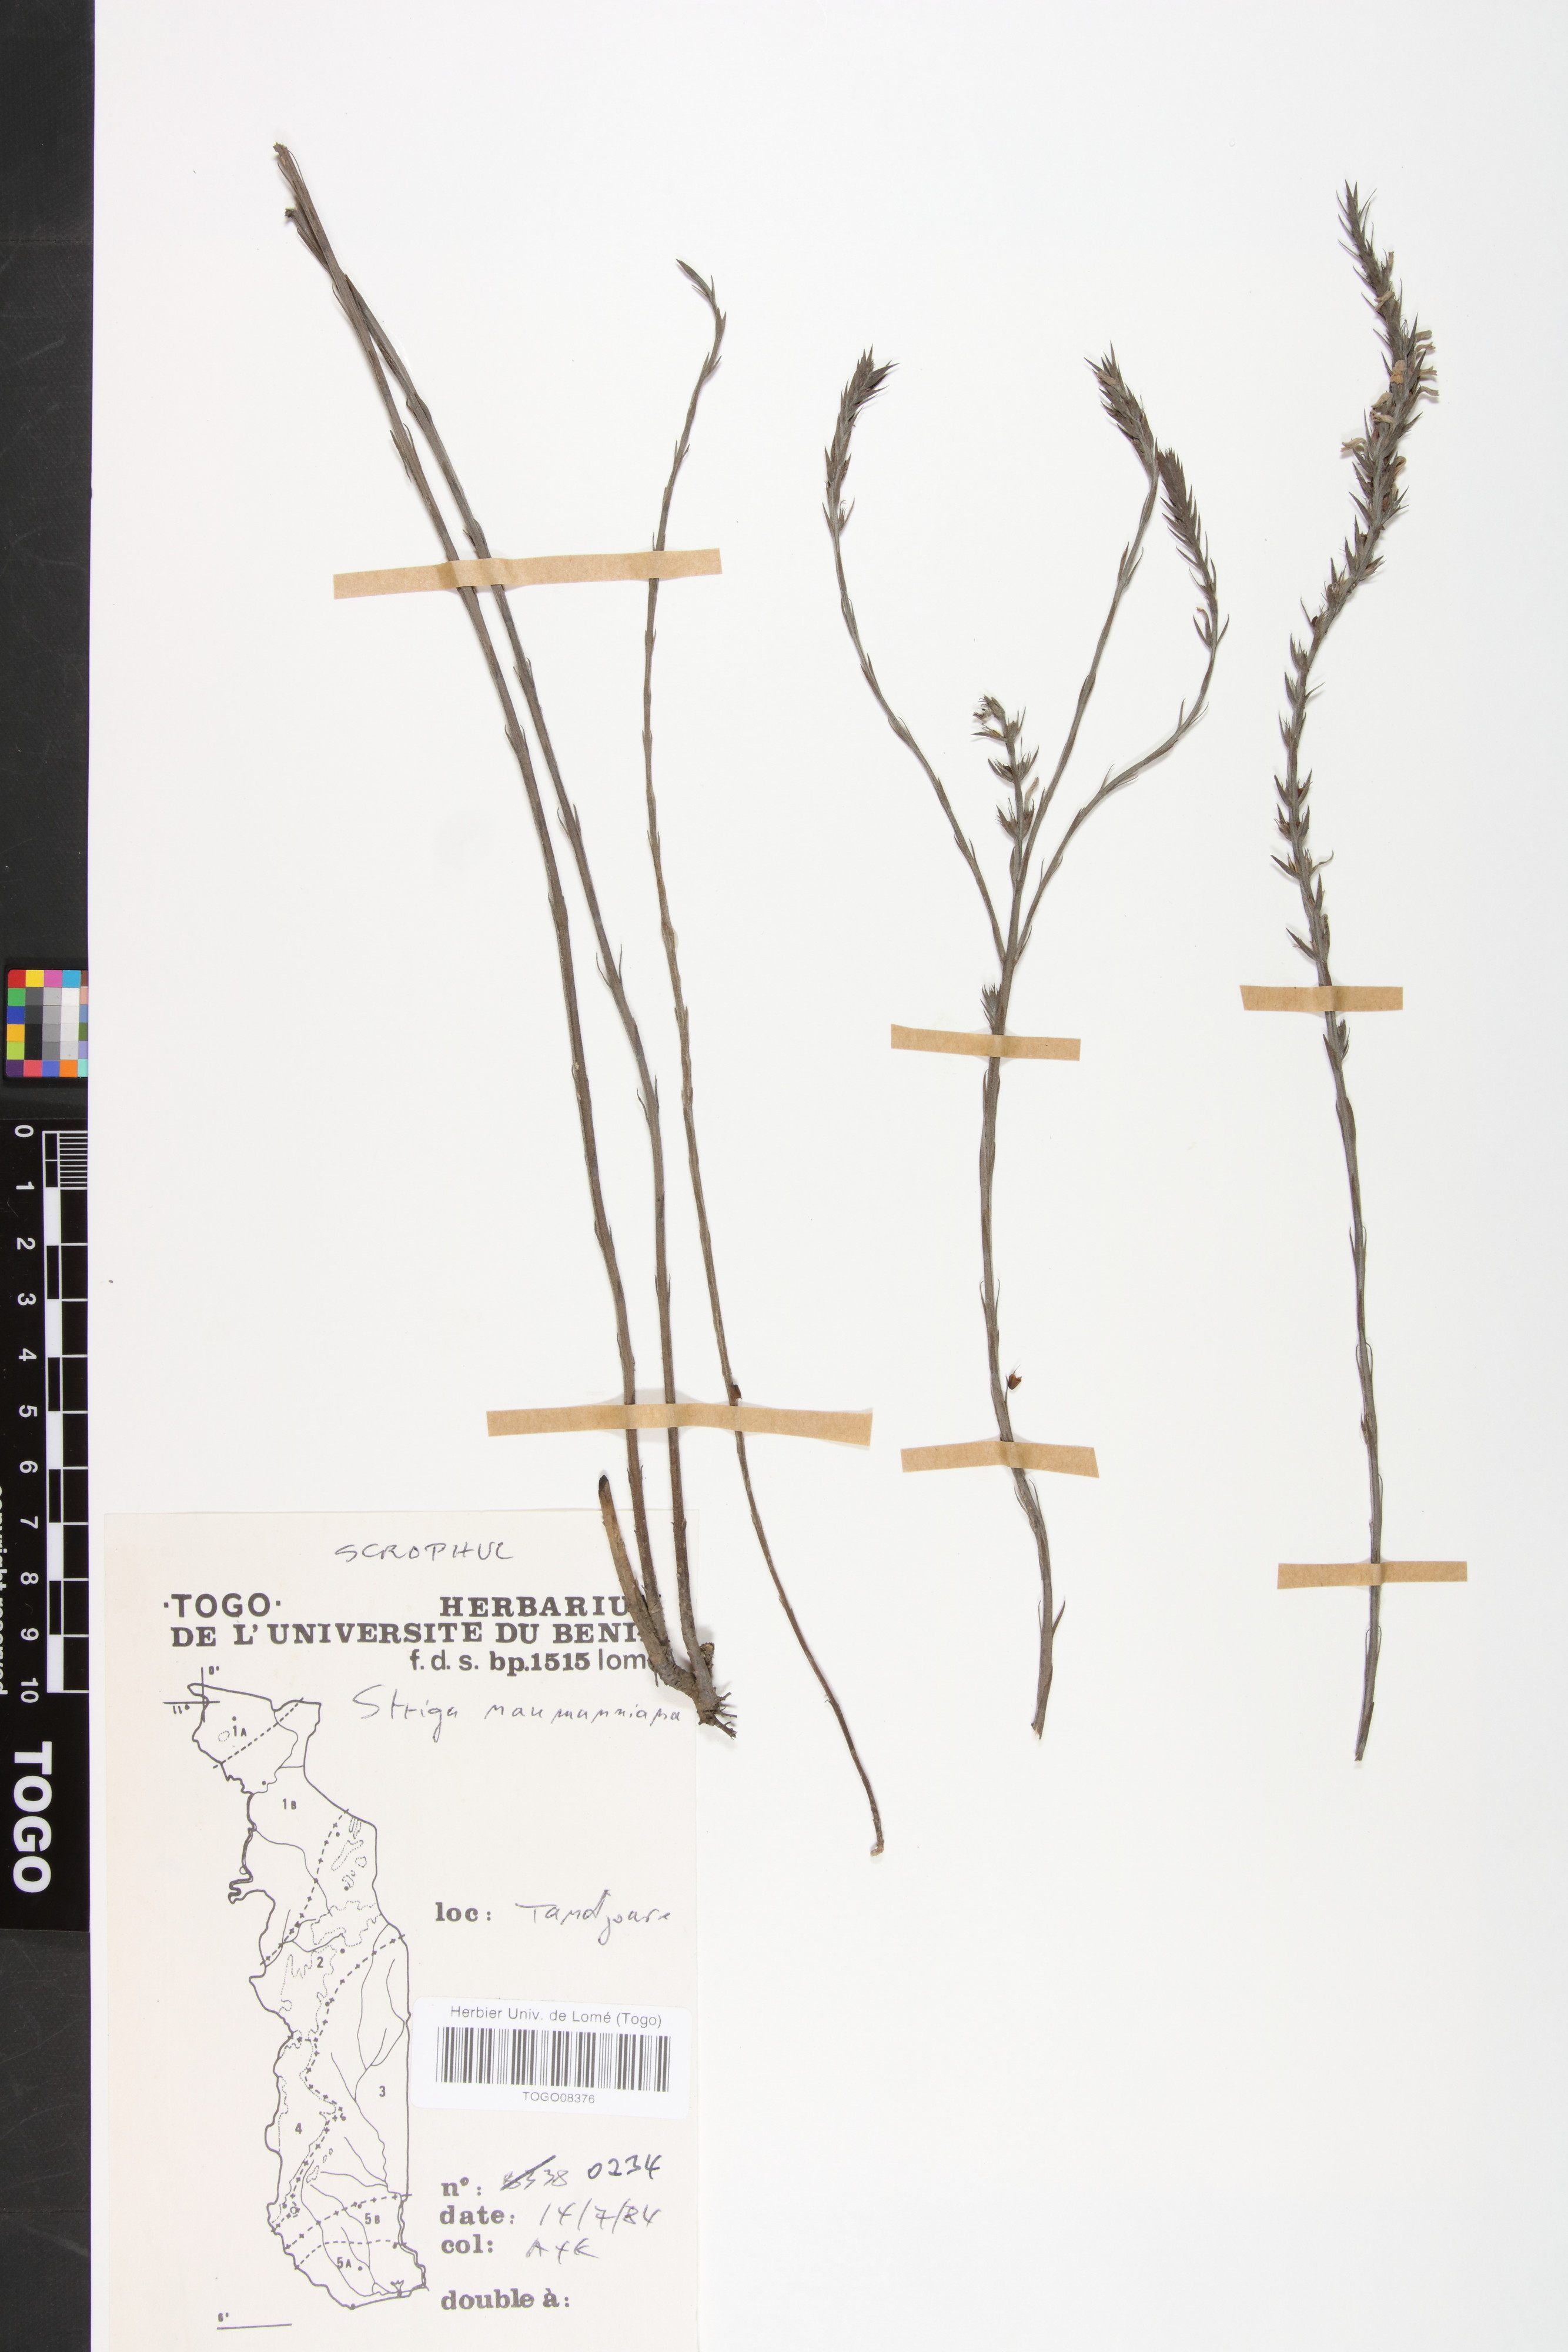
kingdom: Plantae
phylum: Tracheophyta
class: Magnoliopsida
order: Lamiales
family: Orobanchaceae
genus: Striga
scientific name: Striga
